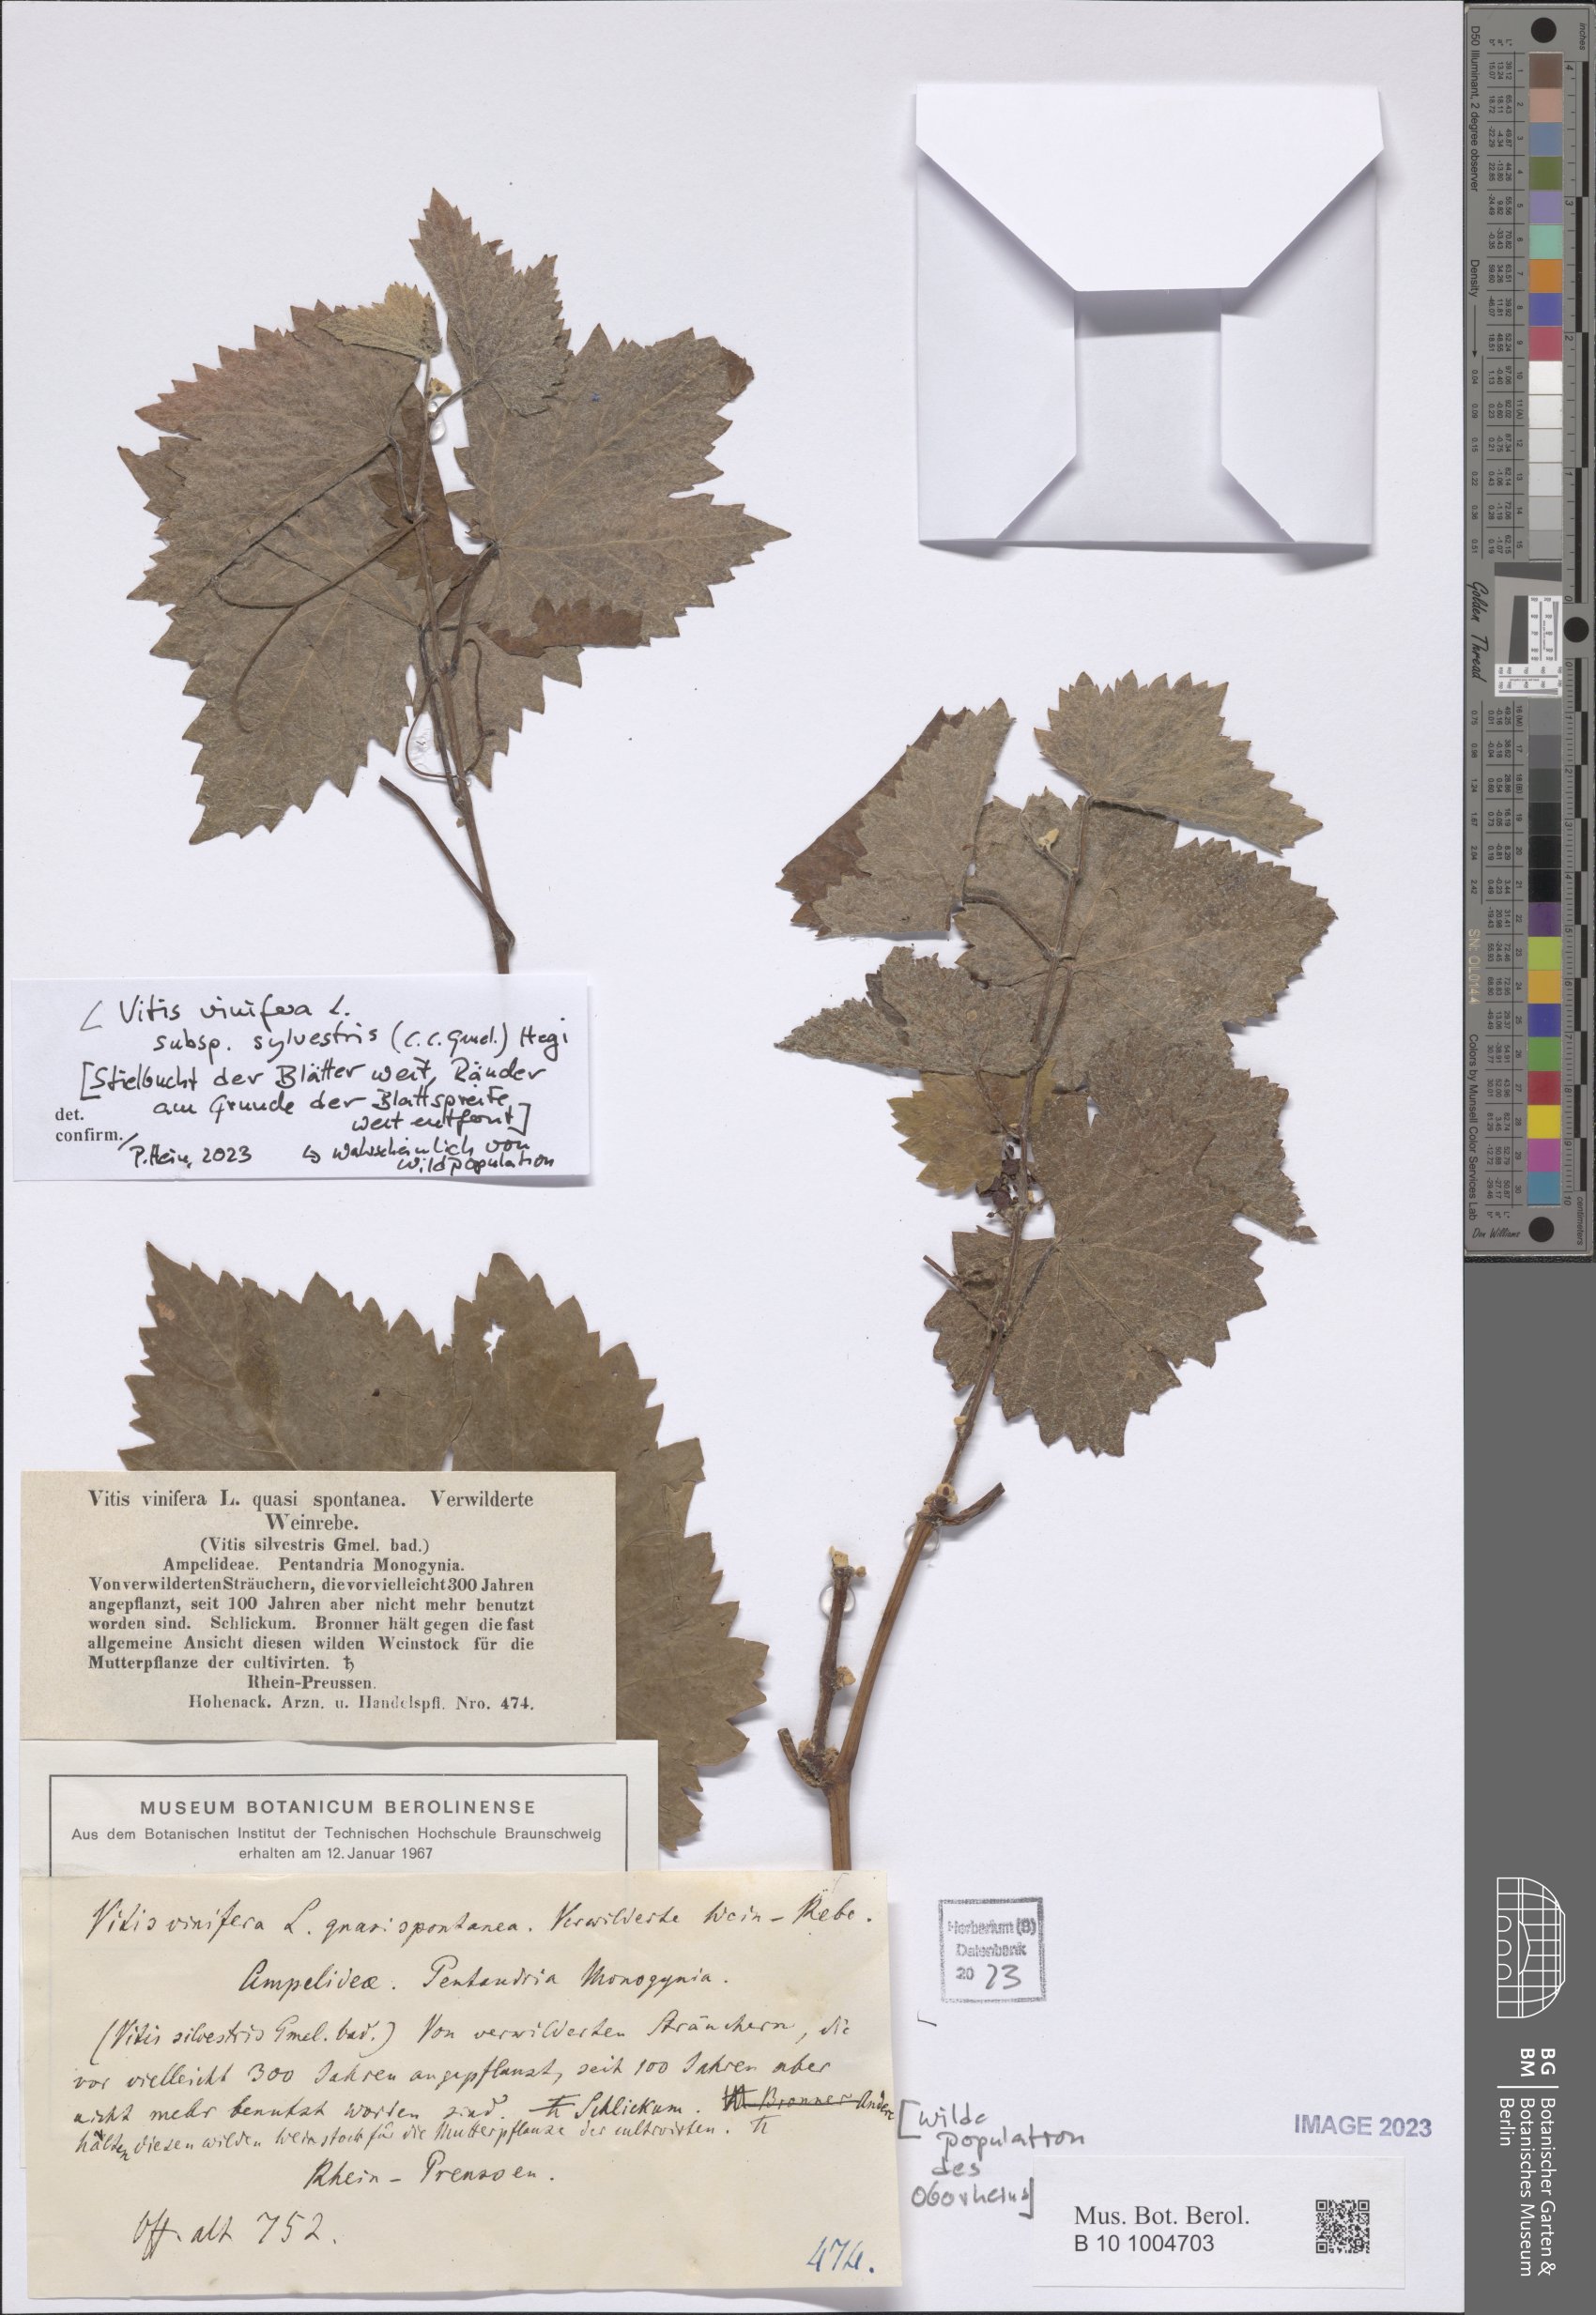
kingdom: Plantae
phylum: Tracheophyta
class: Magnoliopsida
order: Vitales
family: Vitaceae
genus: Vitis
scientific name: Vitis gmelinii
